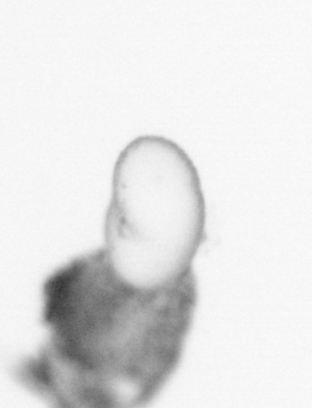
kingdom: Animalia
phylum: Arthropoda
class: Copepoda
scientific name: Copepoda
